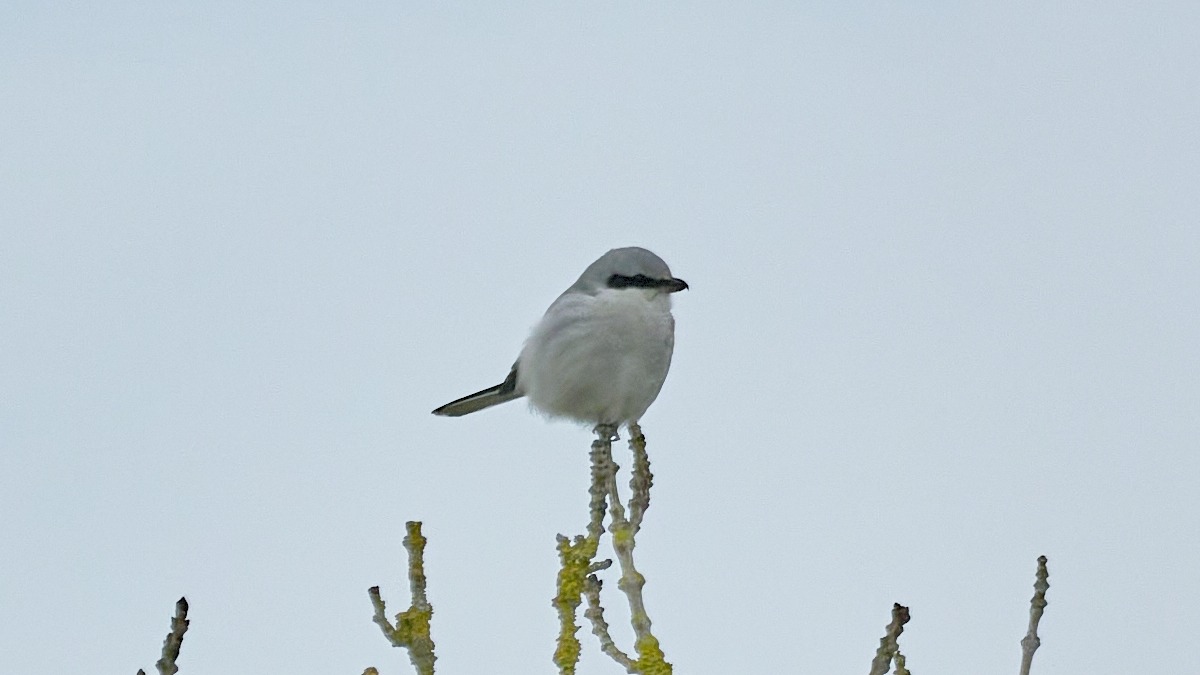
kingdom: Animalia
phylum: Chordata
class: Aves
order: Passeriformes
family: Laniidae
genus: Lanius
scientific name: Lanius excubitor
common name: Stor tornskade
